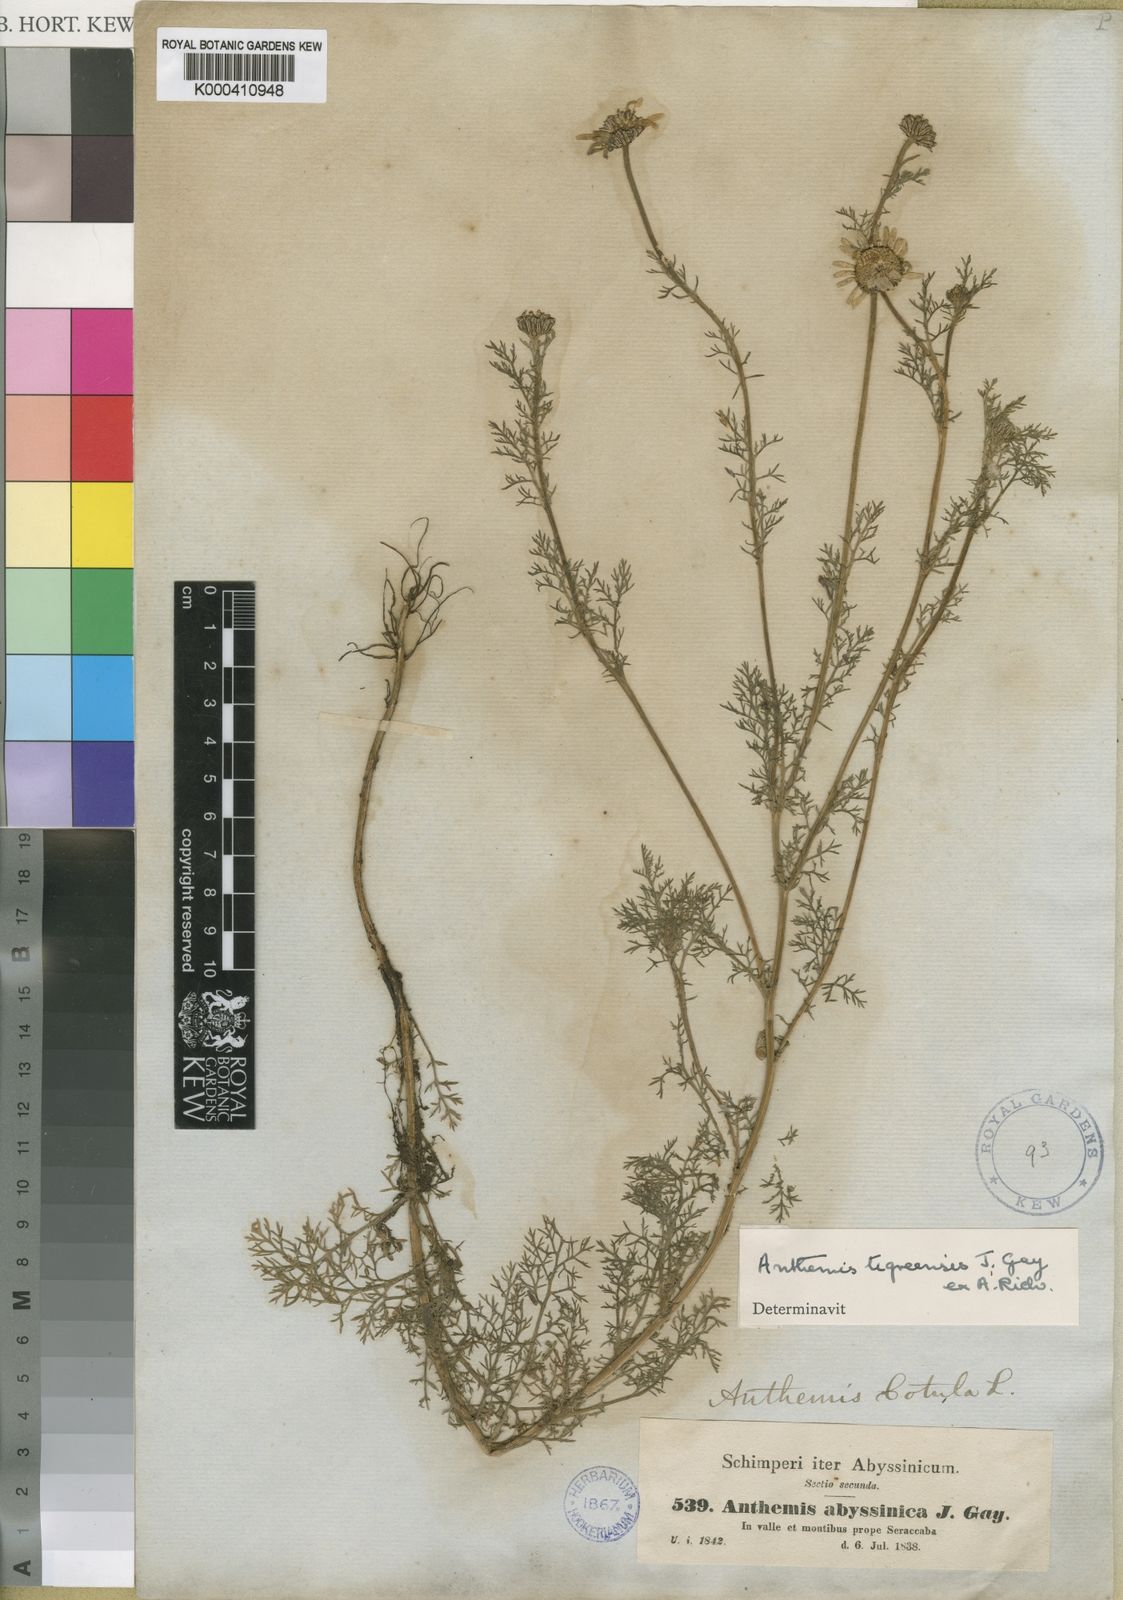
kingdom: Plantae
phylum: Tracheophyta
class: Magnoliopsida
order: Asterales
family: Asteraceae
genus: Eclipta
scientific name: Eclipta alba
